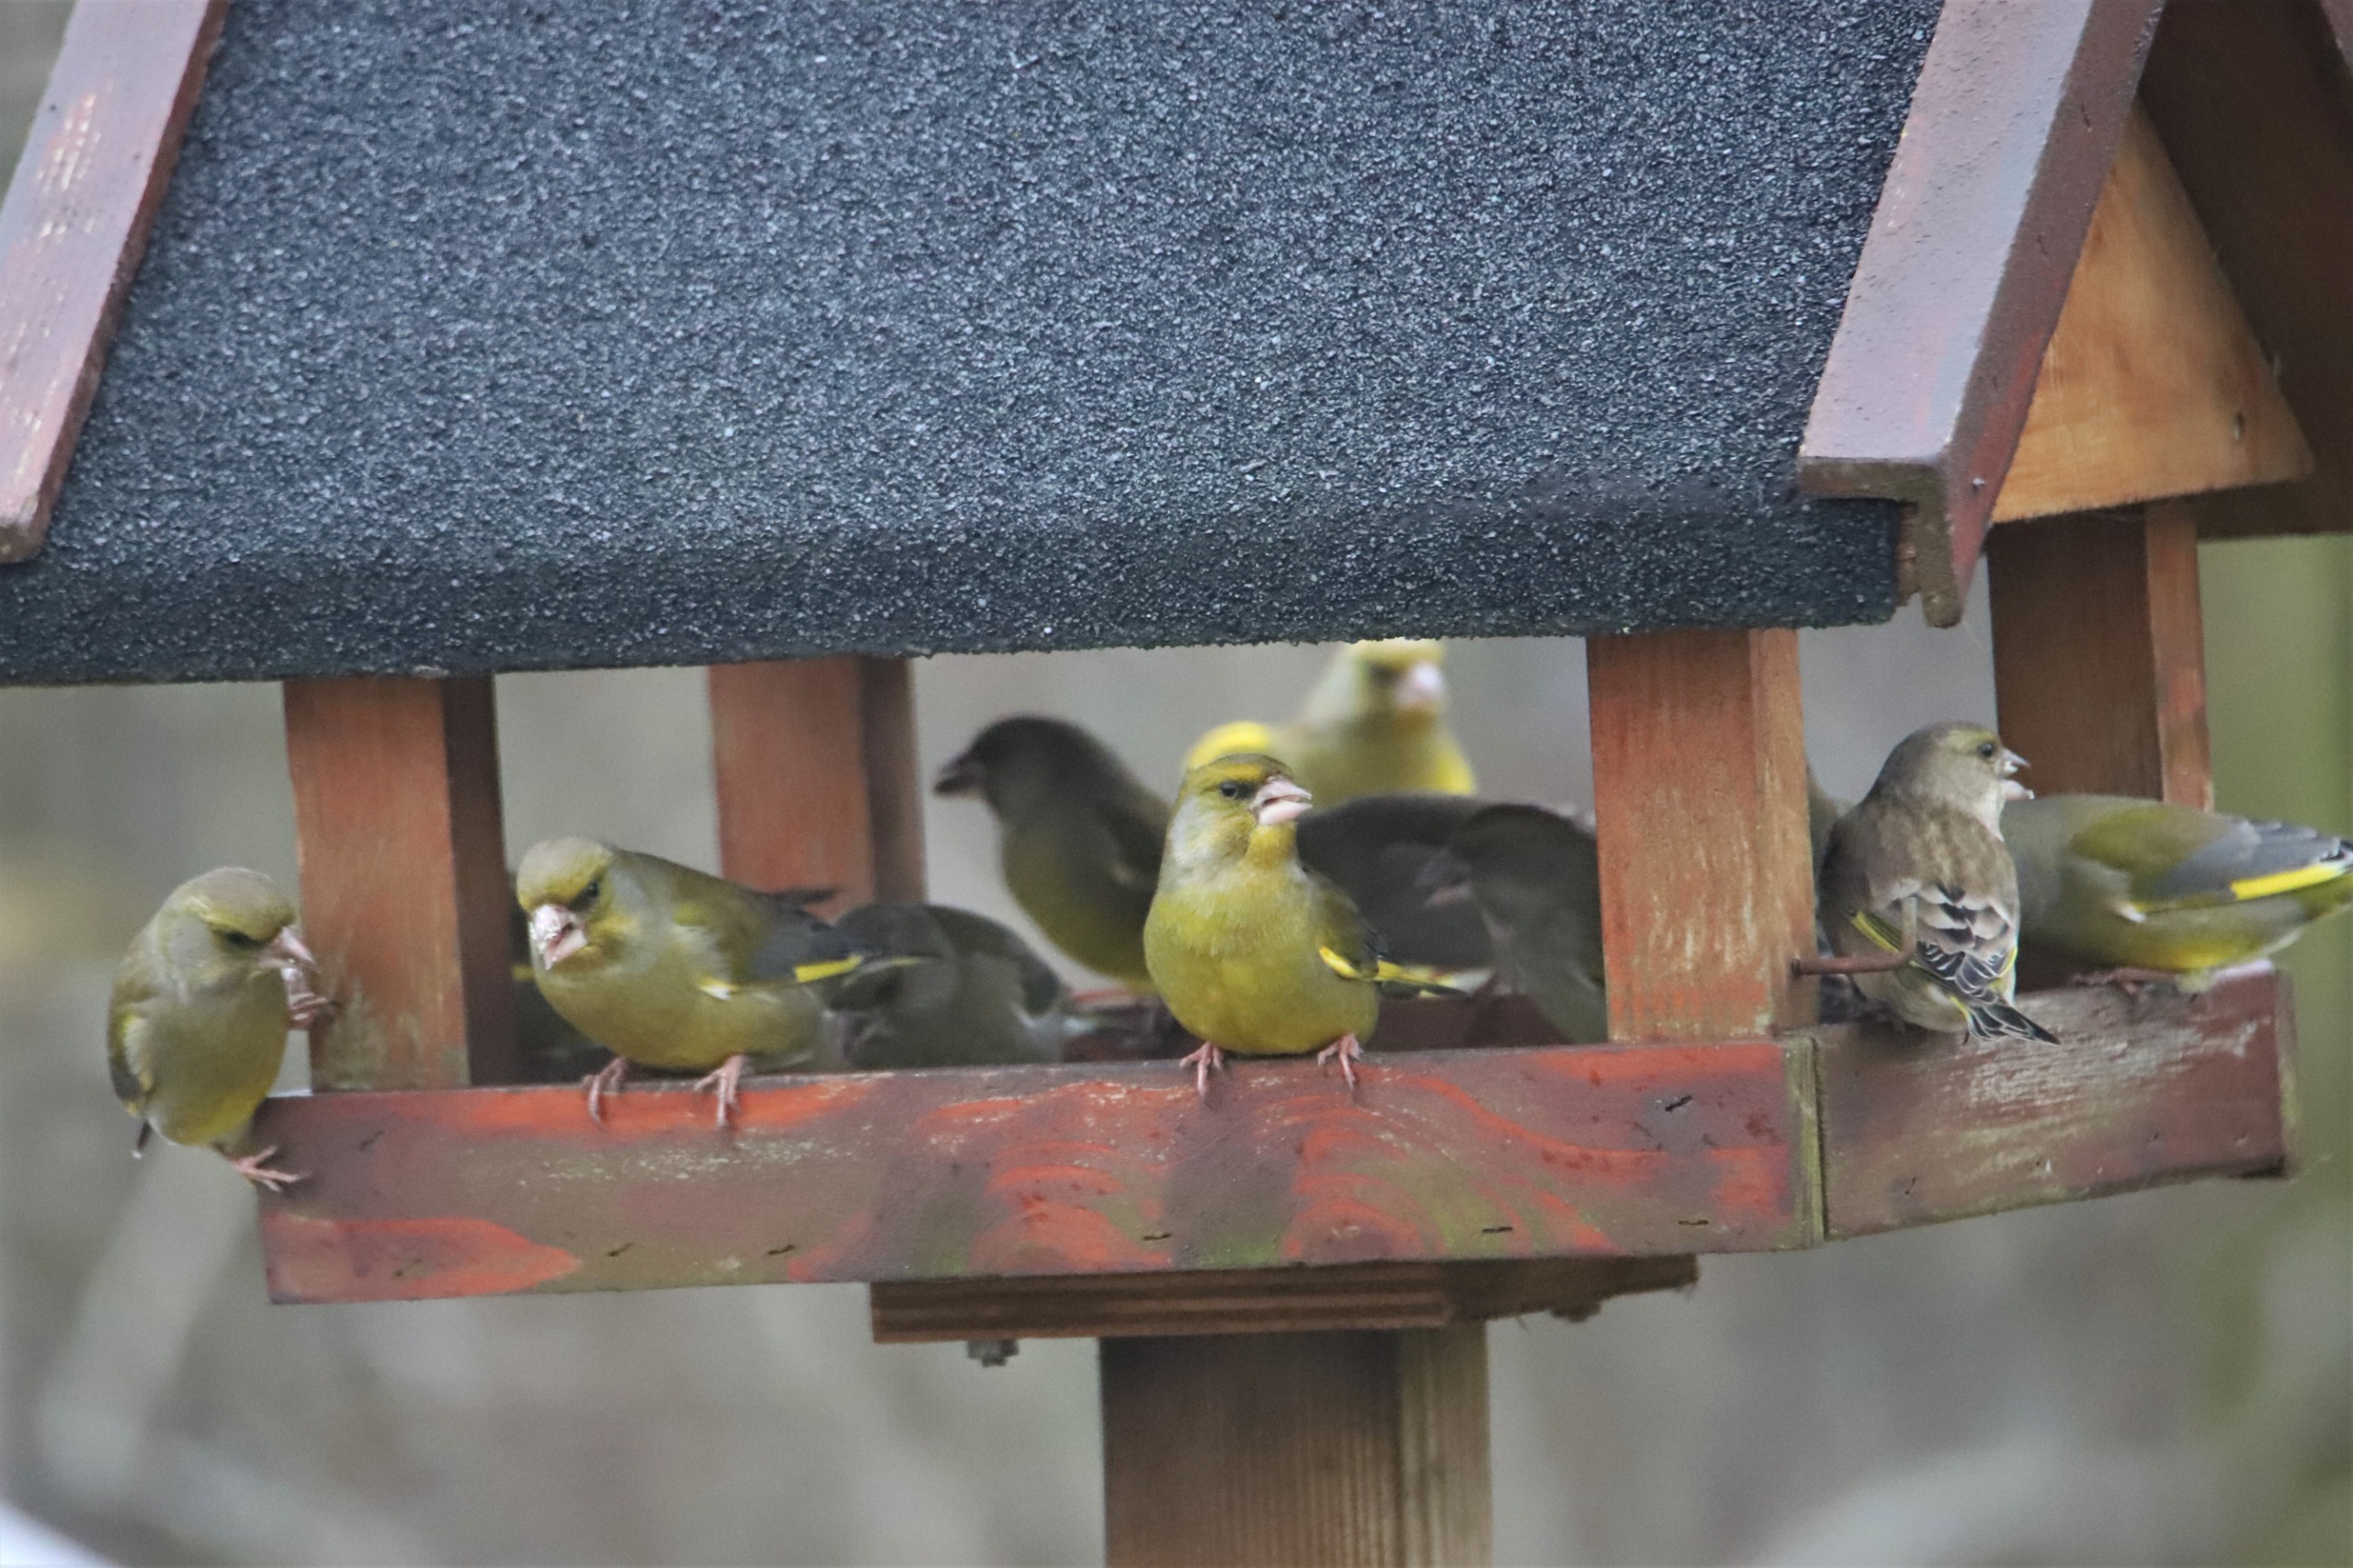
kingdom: Plantae
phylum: Tracheophyta
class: Liliopsida
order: Poales
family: Poaceae
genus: Chloris
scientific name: Chloris chloris
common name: Grønirisk
